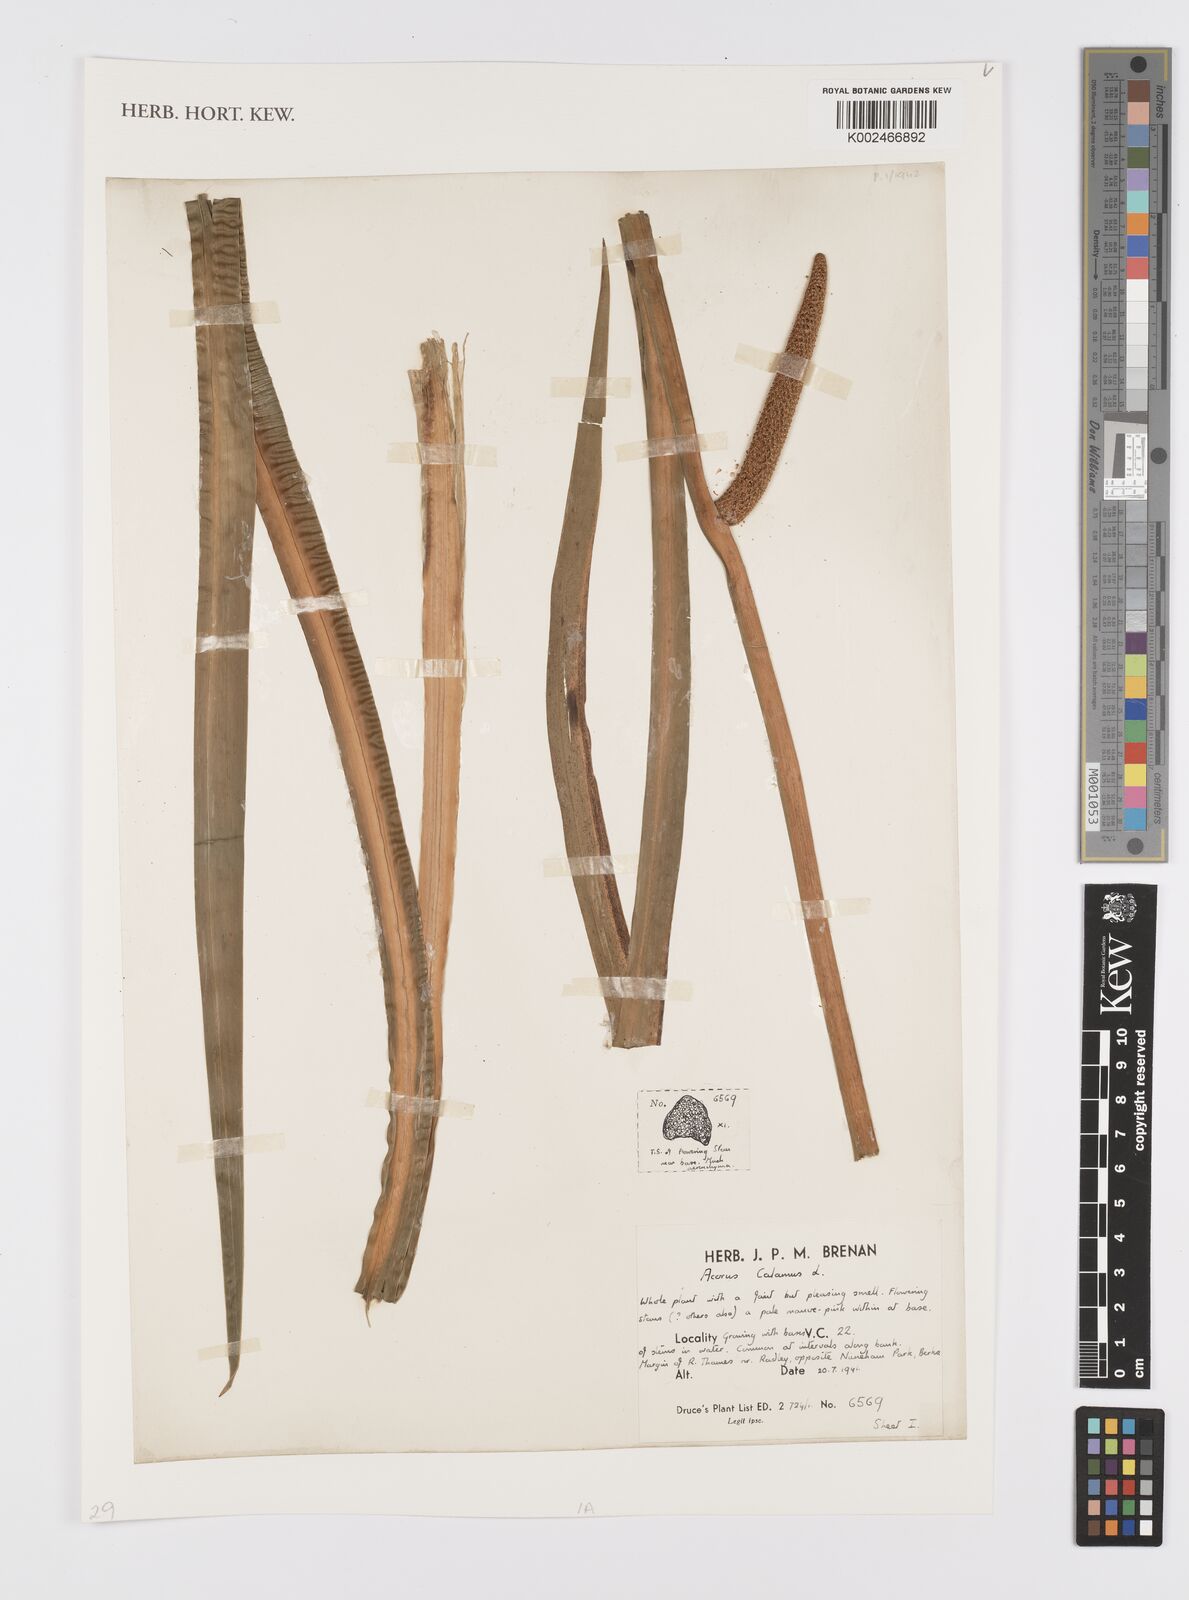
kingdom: Plantae
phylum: Tracheophyta
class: Liliopsida
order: Acorales
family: Acoraceae
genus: Acorus
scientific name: Acorus calamus
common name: Sweet-flag
